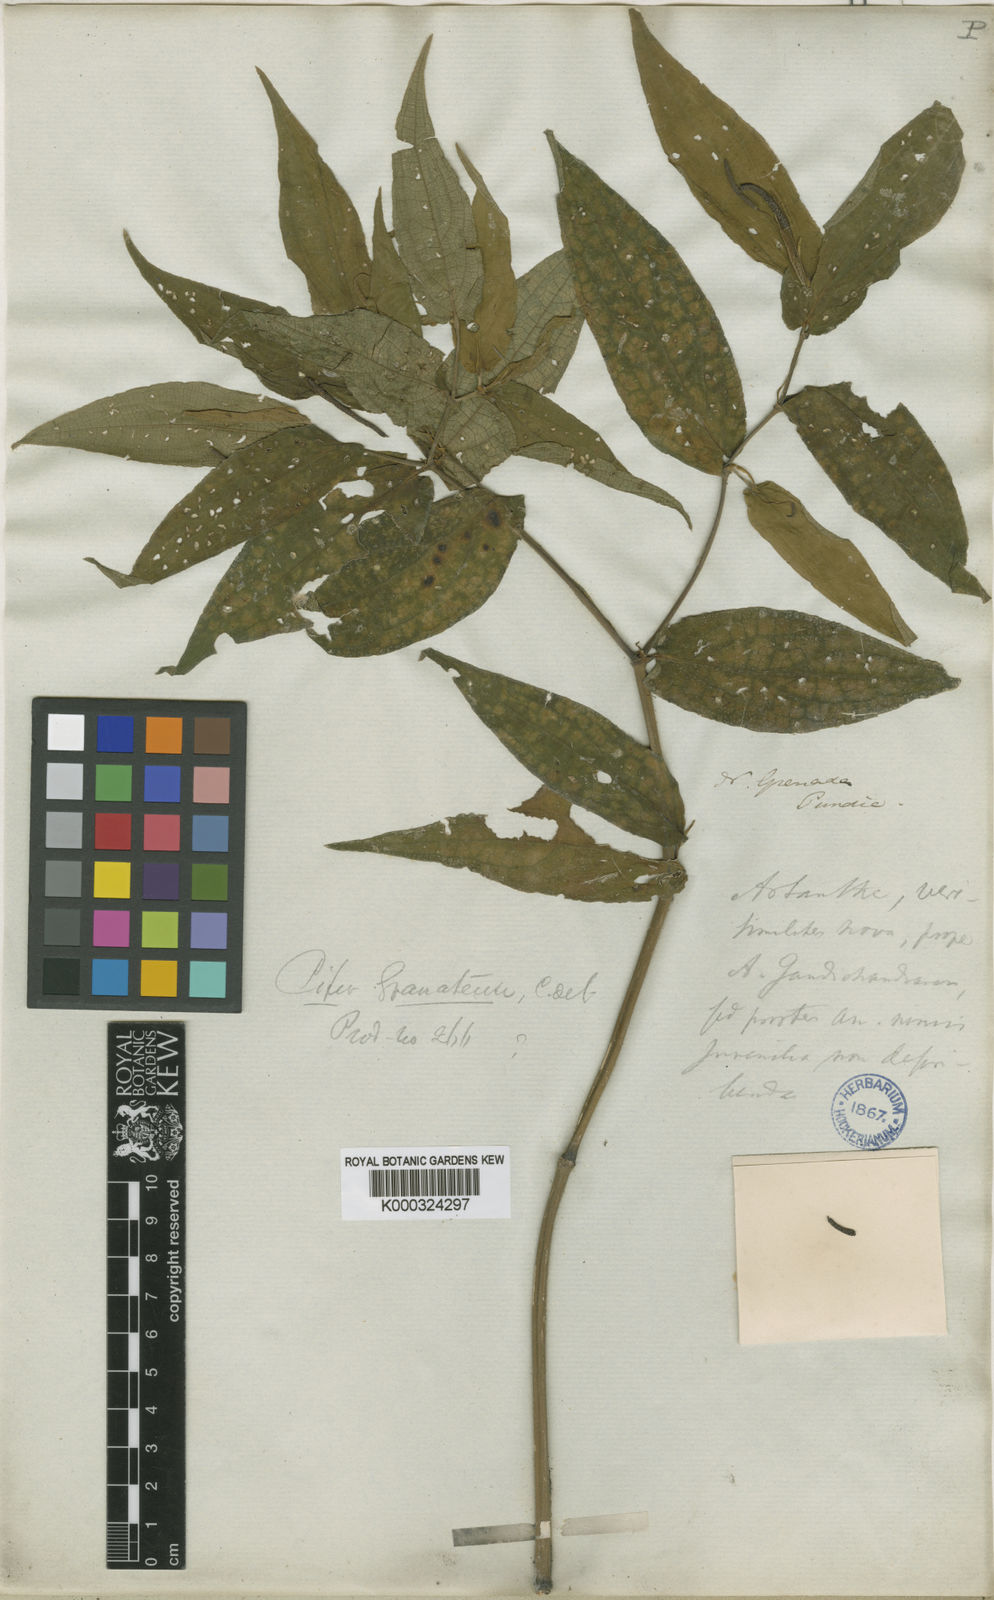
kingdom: Plantae
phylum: Tracheophyta
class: Magnoliopsida
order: Piperales
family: Piperaceae
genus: Piper
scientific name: Piper capillipes
